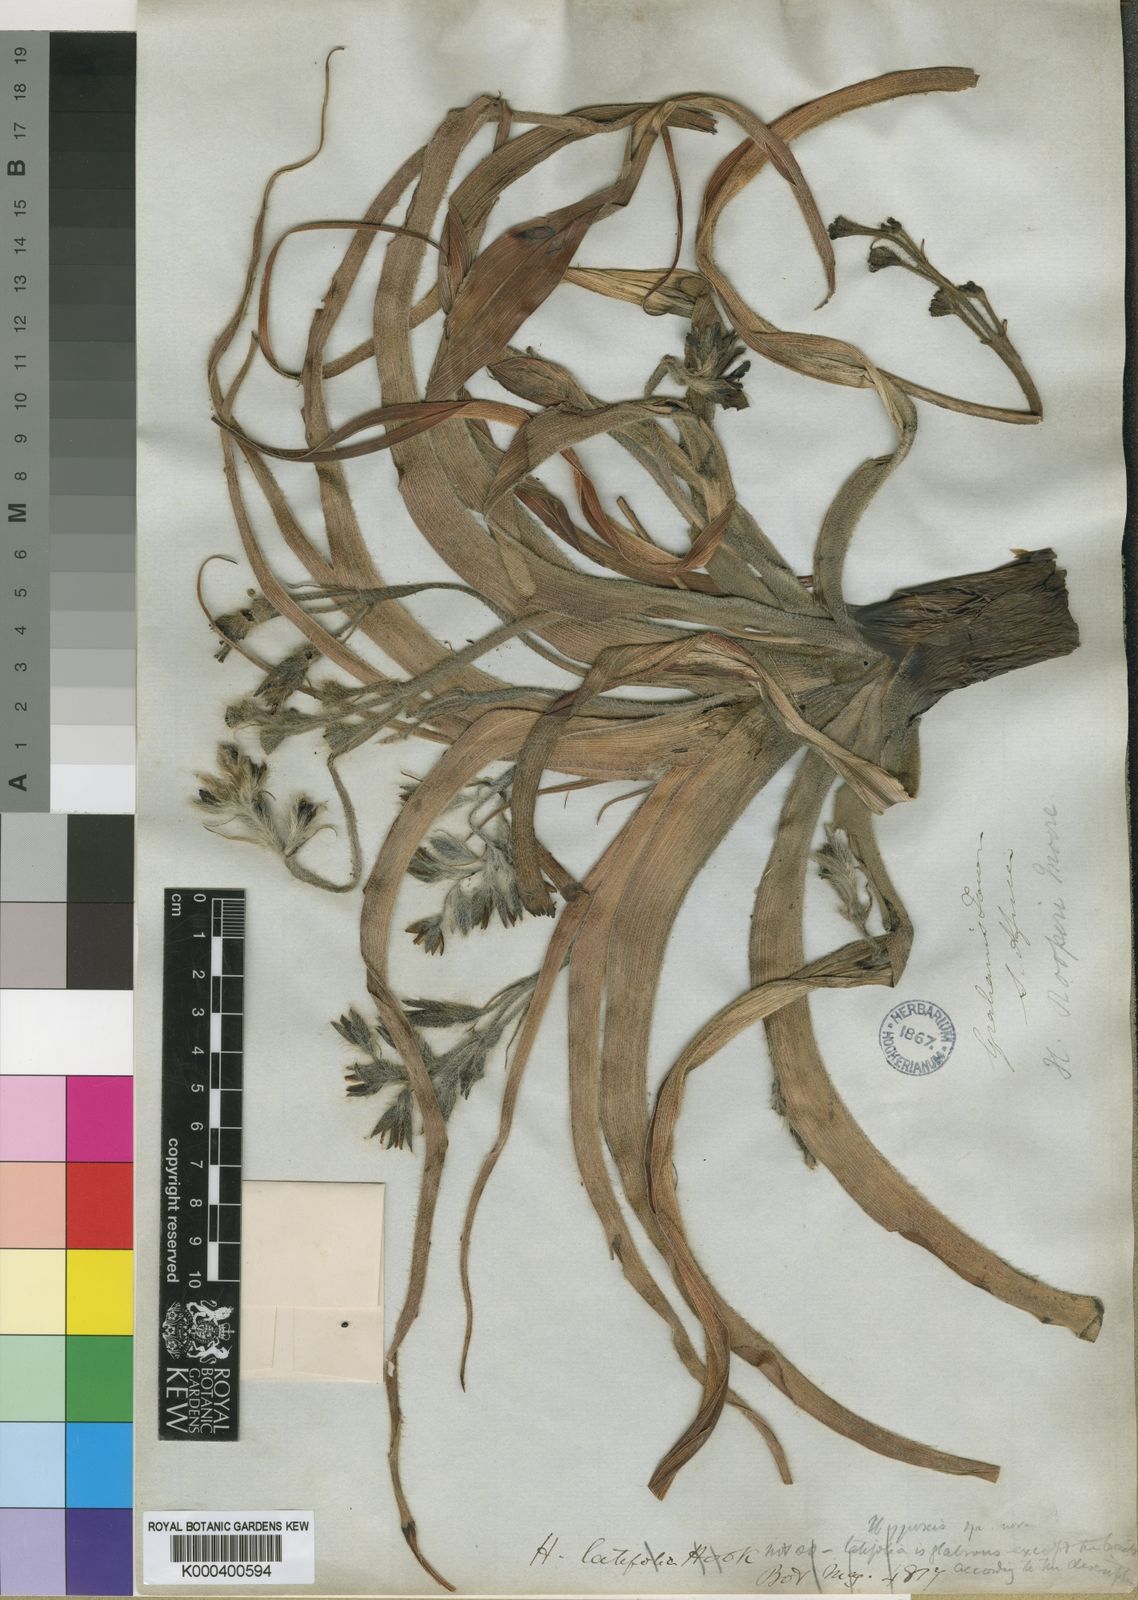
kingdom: Plantae
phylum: Tracheophyta
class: Liliopsida
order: Asparagales
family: Hypoxidaceae
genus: Hypoxis
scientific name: Hypoxis hemerocallidea
